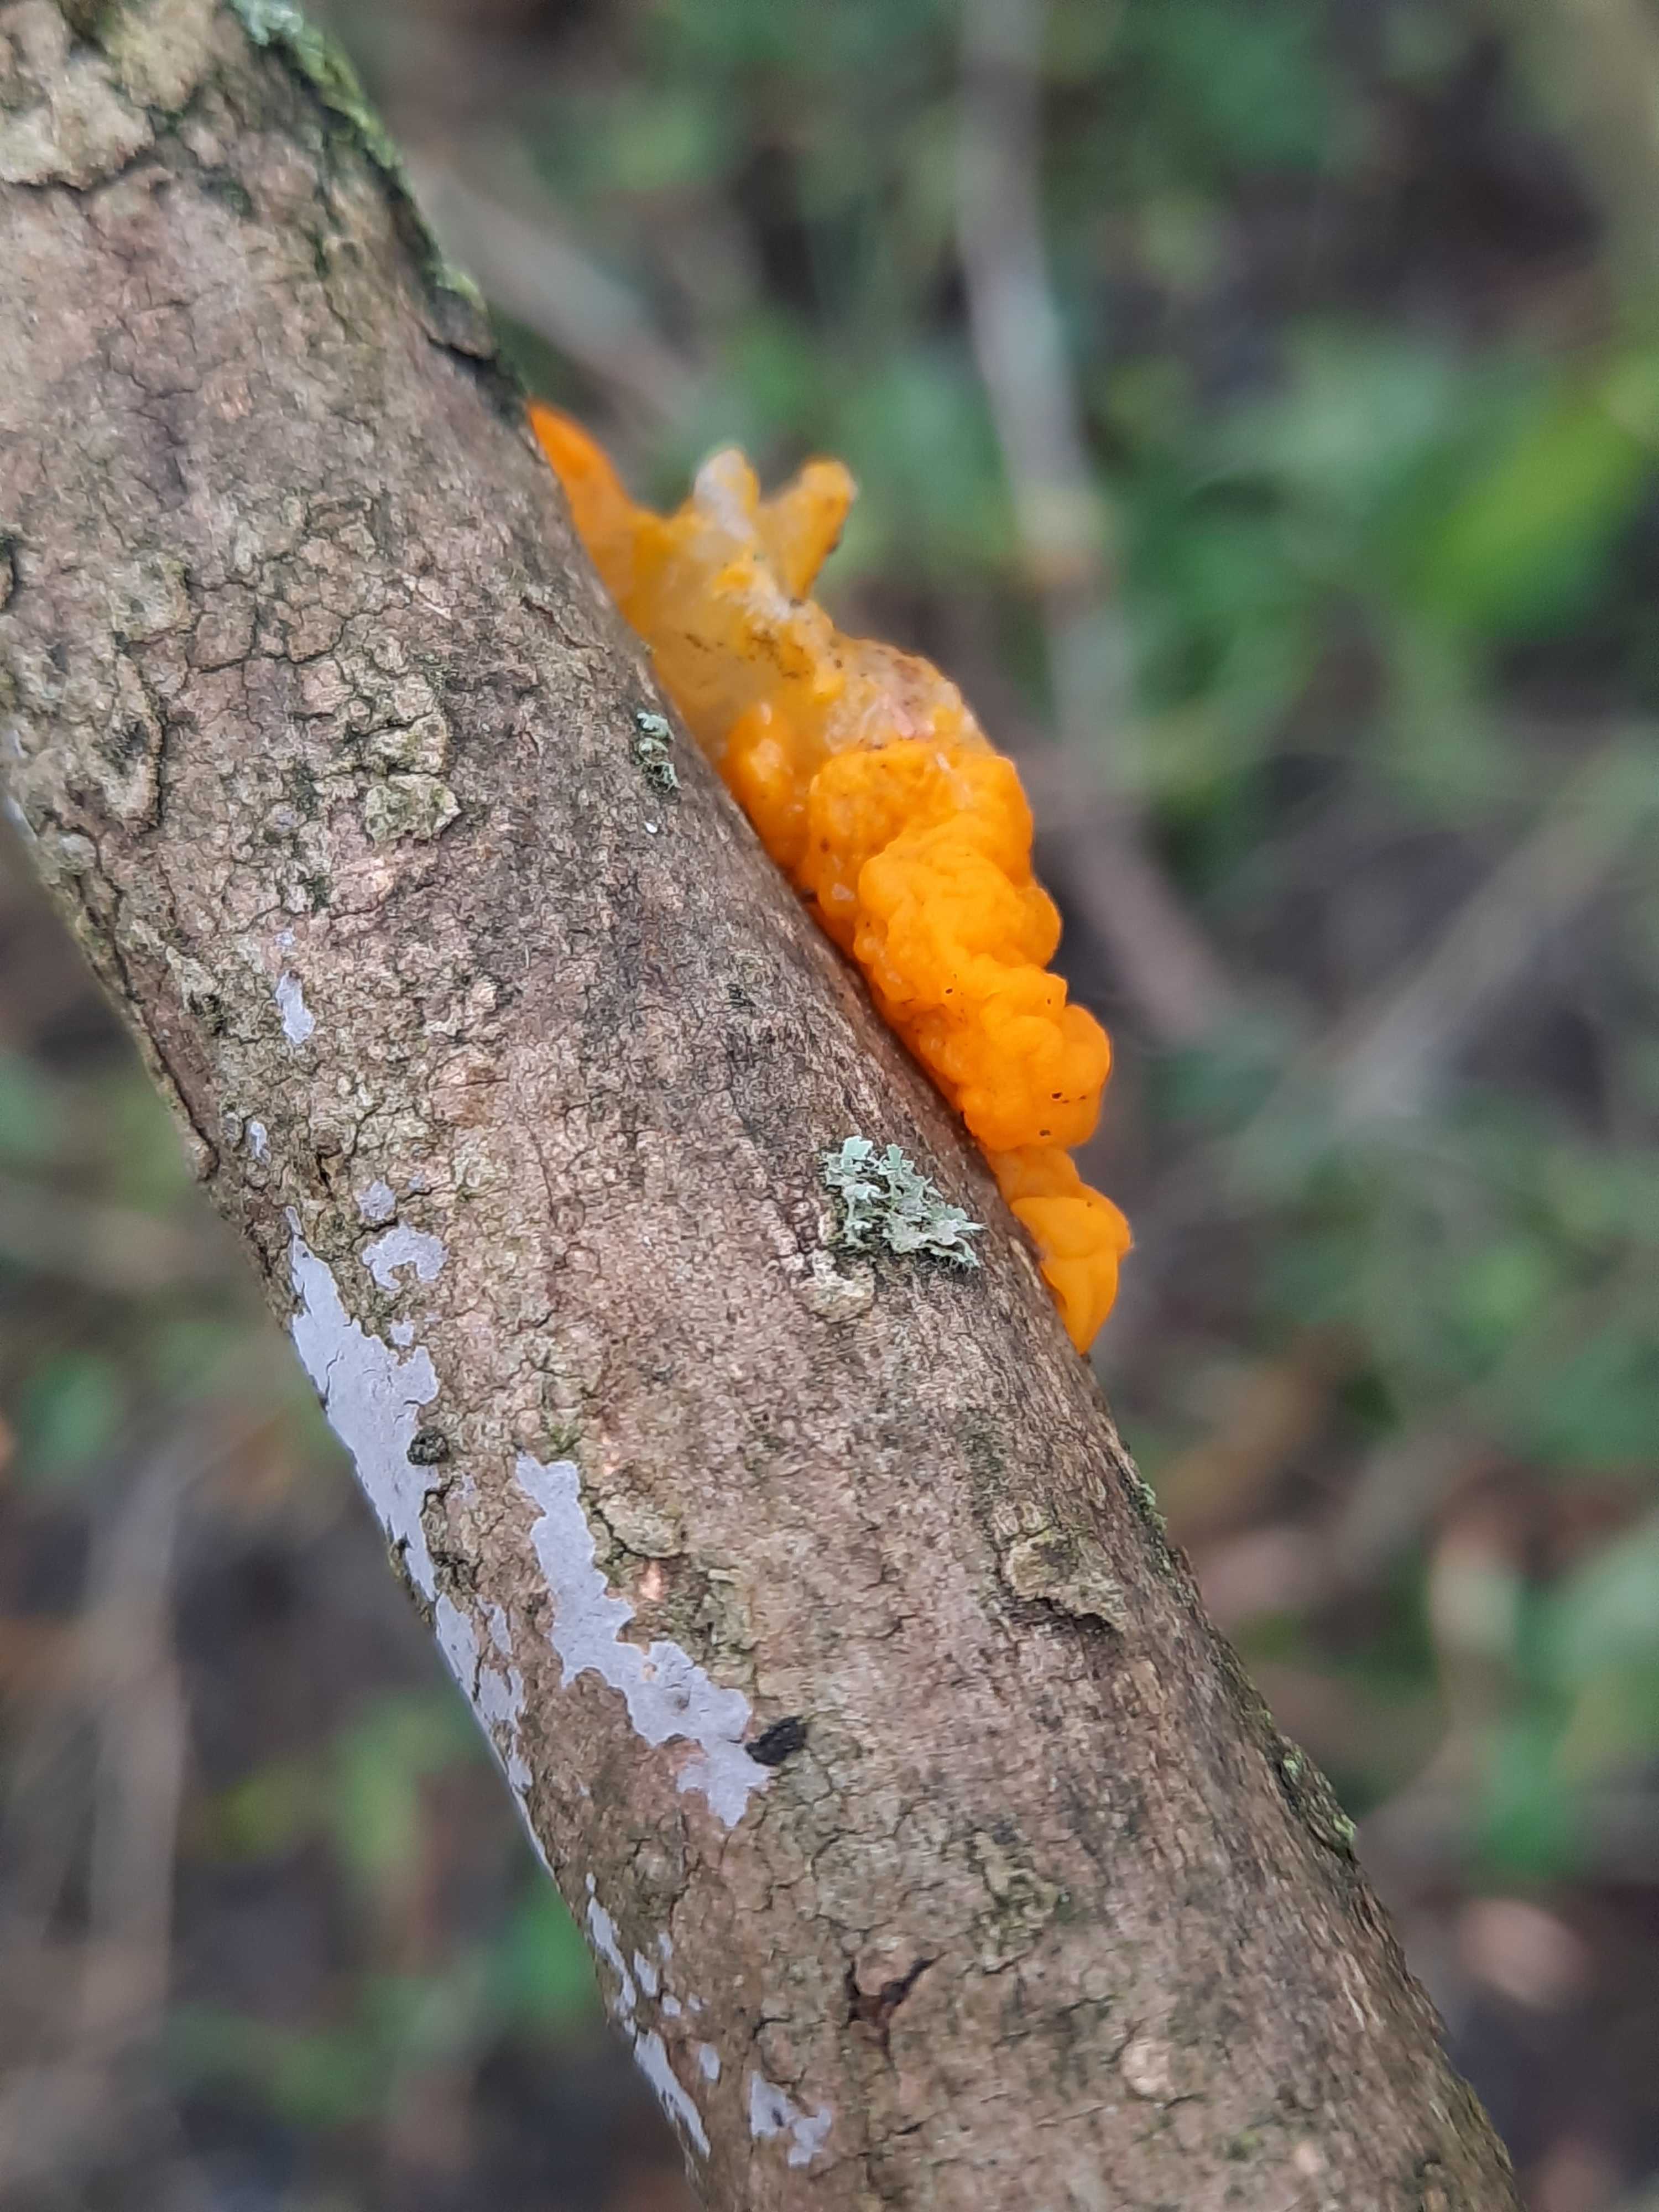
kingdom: Fungi
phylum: Basidiomycota
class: Tremellomycetes
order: Tremellales
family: Tremellaceae
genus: Tremella
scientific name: Tremella mesenterica
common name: gul bævresvamp
